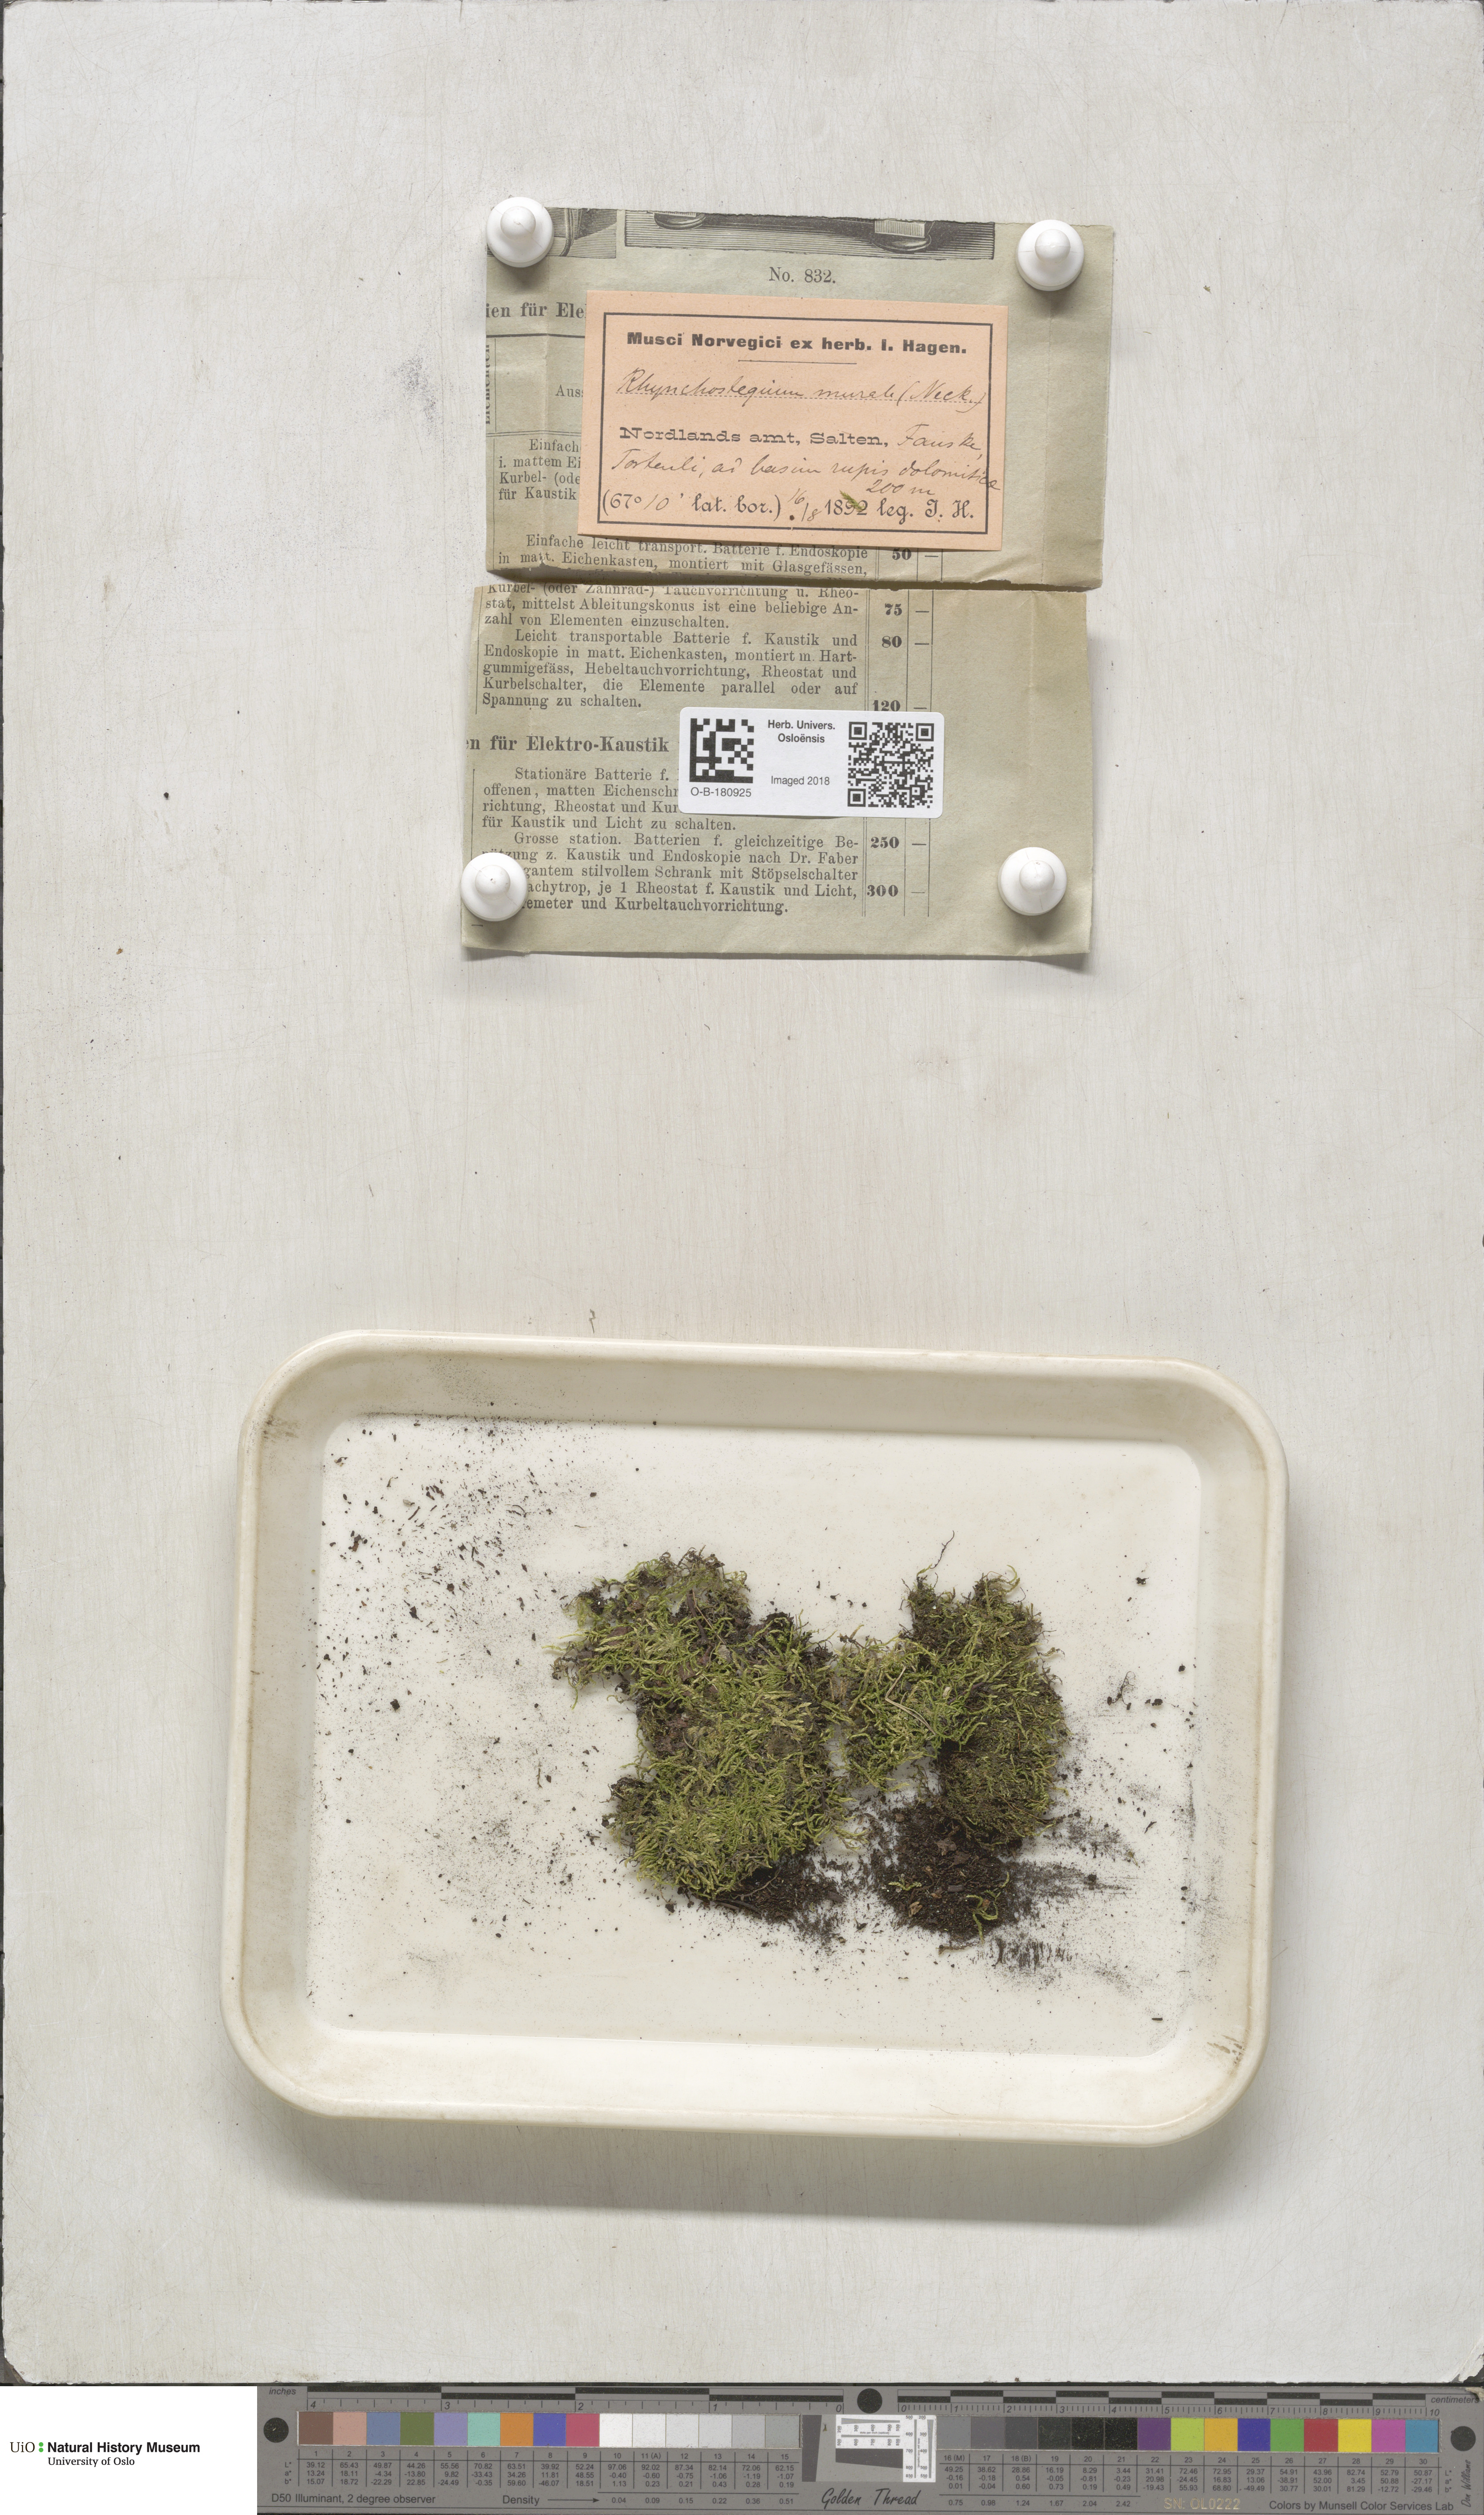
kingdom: Plantae
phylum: Bryophyta
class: Bryopsida
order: Hypnales
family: Brachytheciaceae
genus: Rhynchostegium
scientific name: Rhynchostegium murale
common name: Wall feather-moss
